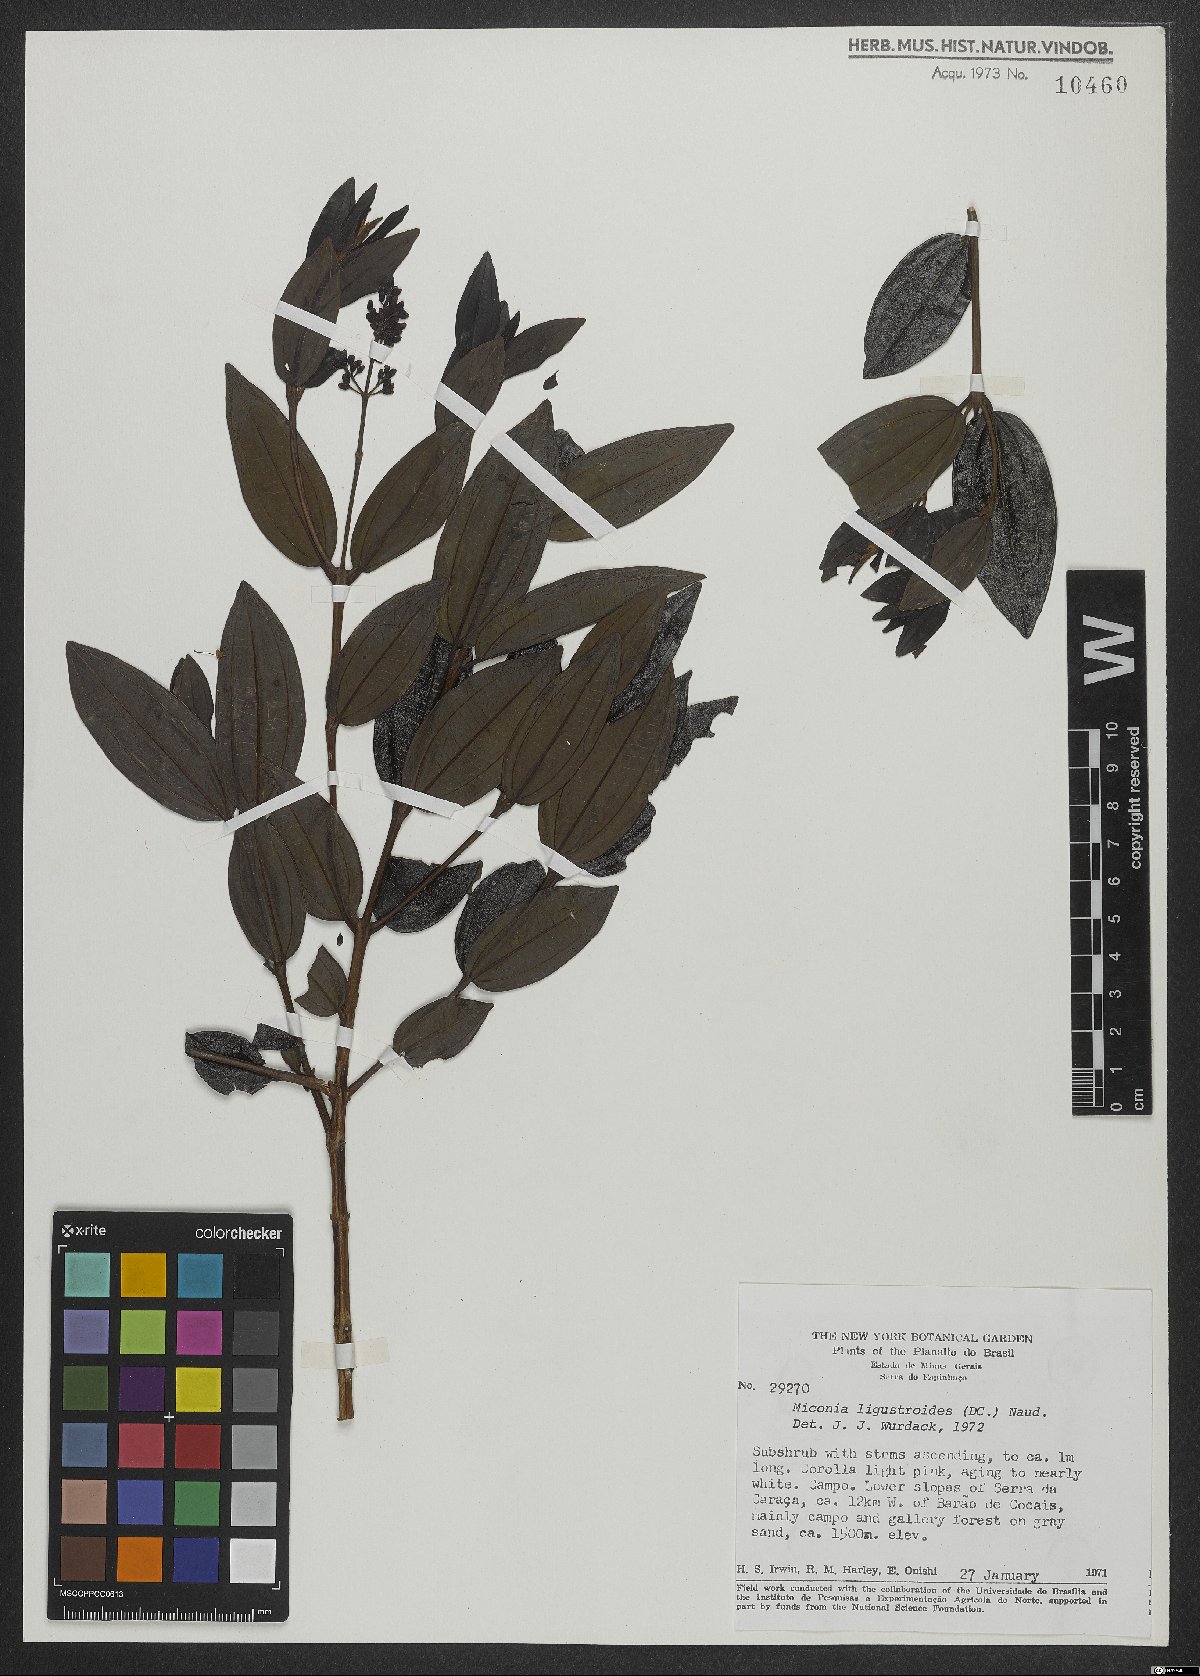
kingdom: Plantae
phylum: Tracheophyta
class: Magnoliopsida
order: Myrtales
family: Melastomataceae
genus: Miconia
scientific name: Miconia ligustroides
